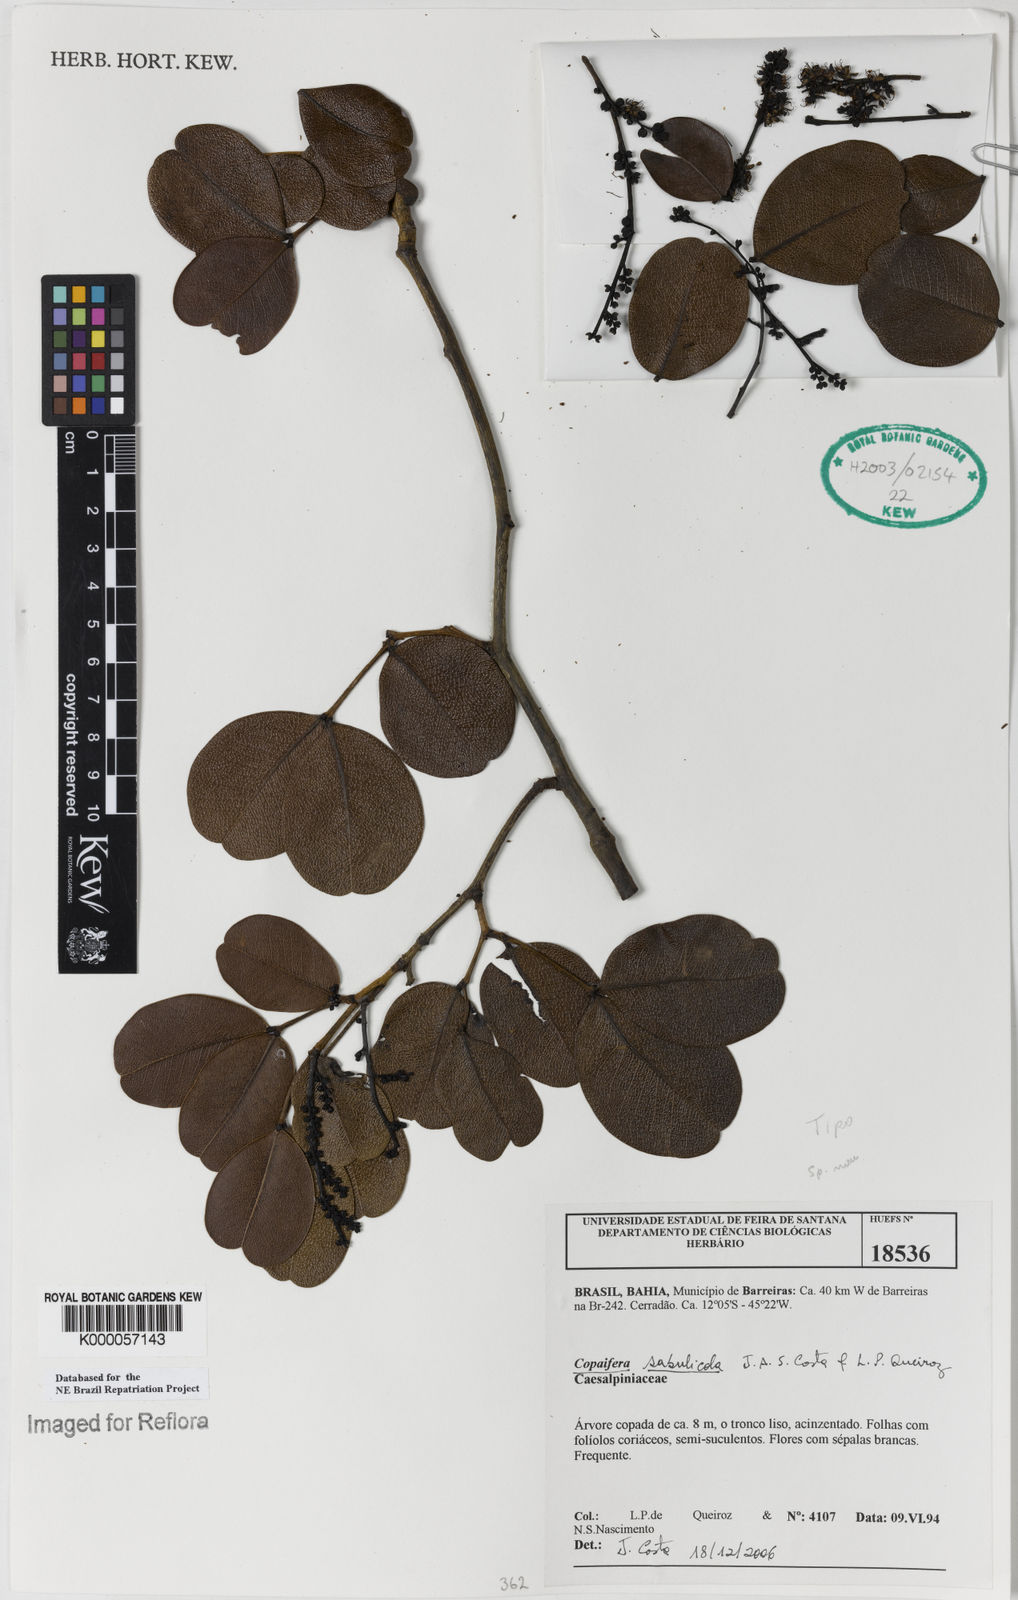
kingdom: Plantae
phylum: Tracheophyta
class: Magnoliopsida
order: Fabales
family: Fabaceae
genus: Copaifera
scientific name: Copaifera sabulicola
